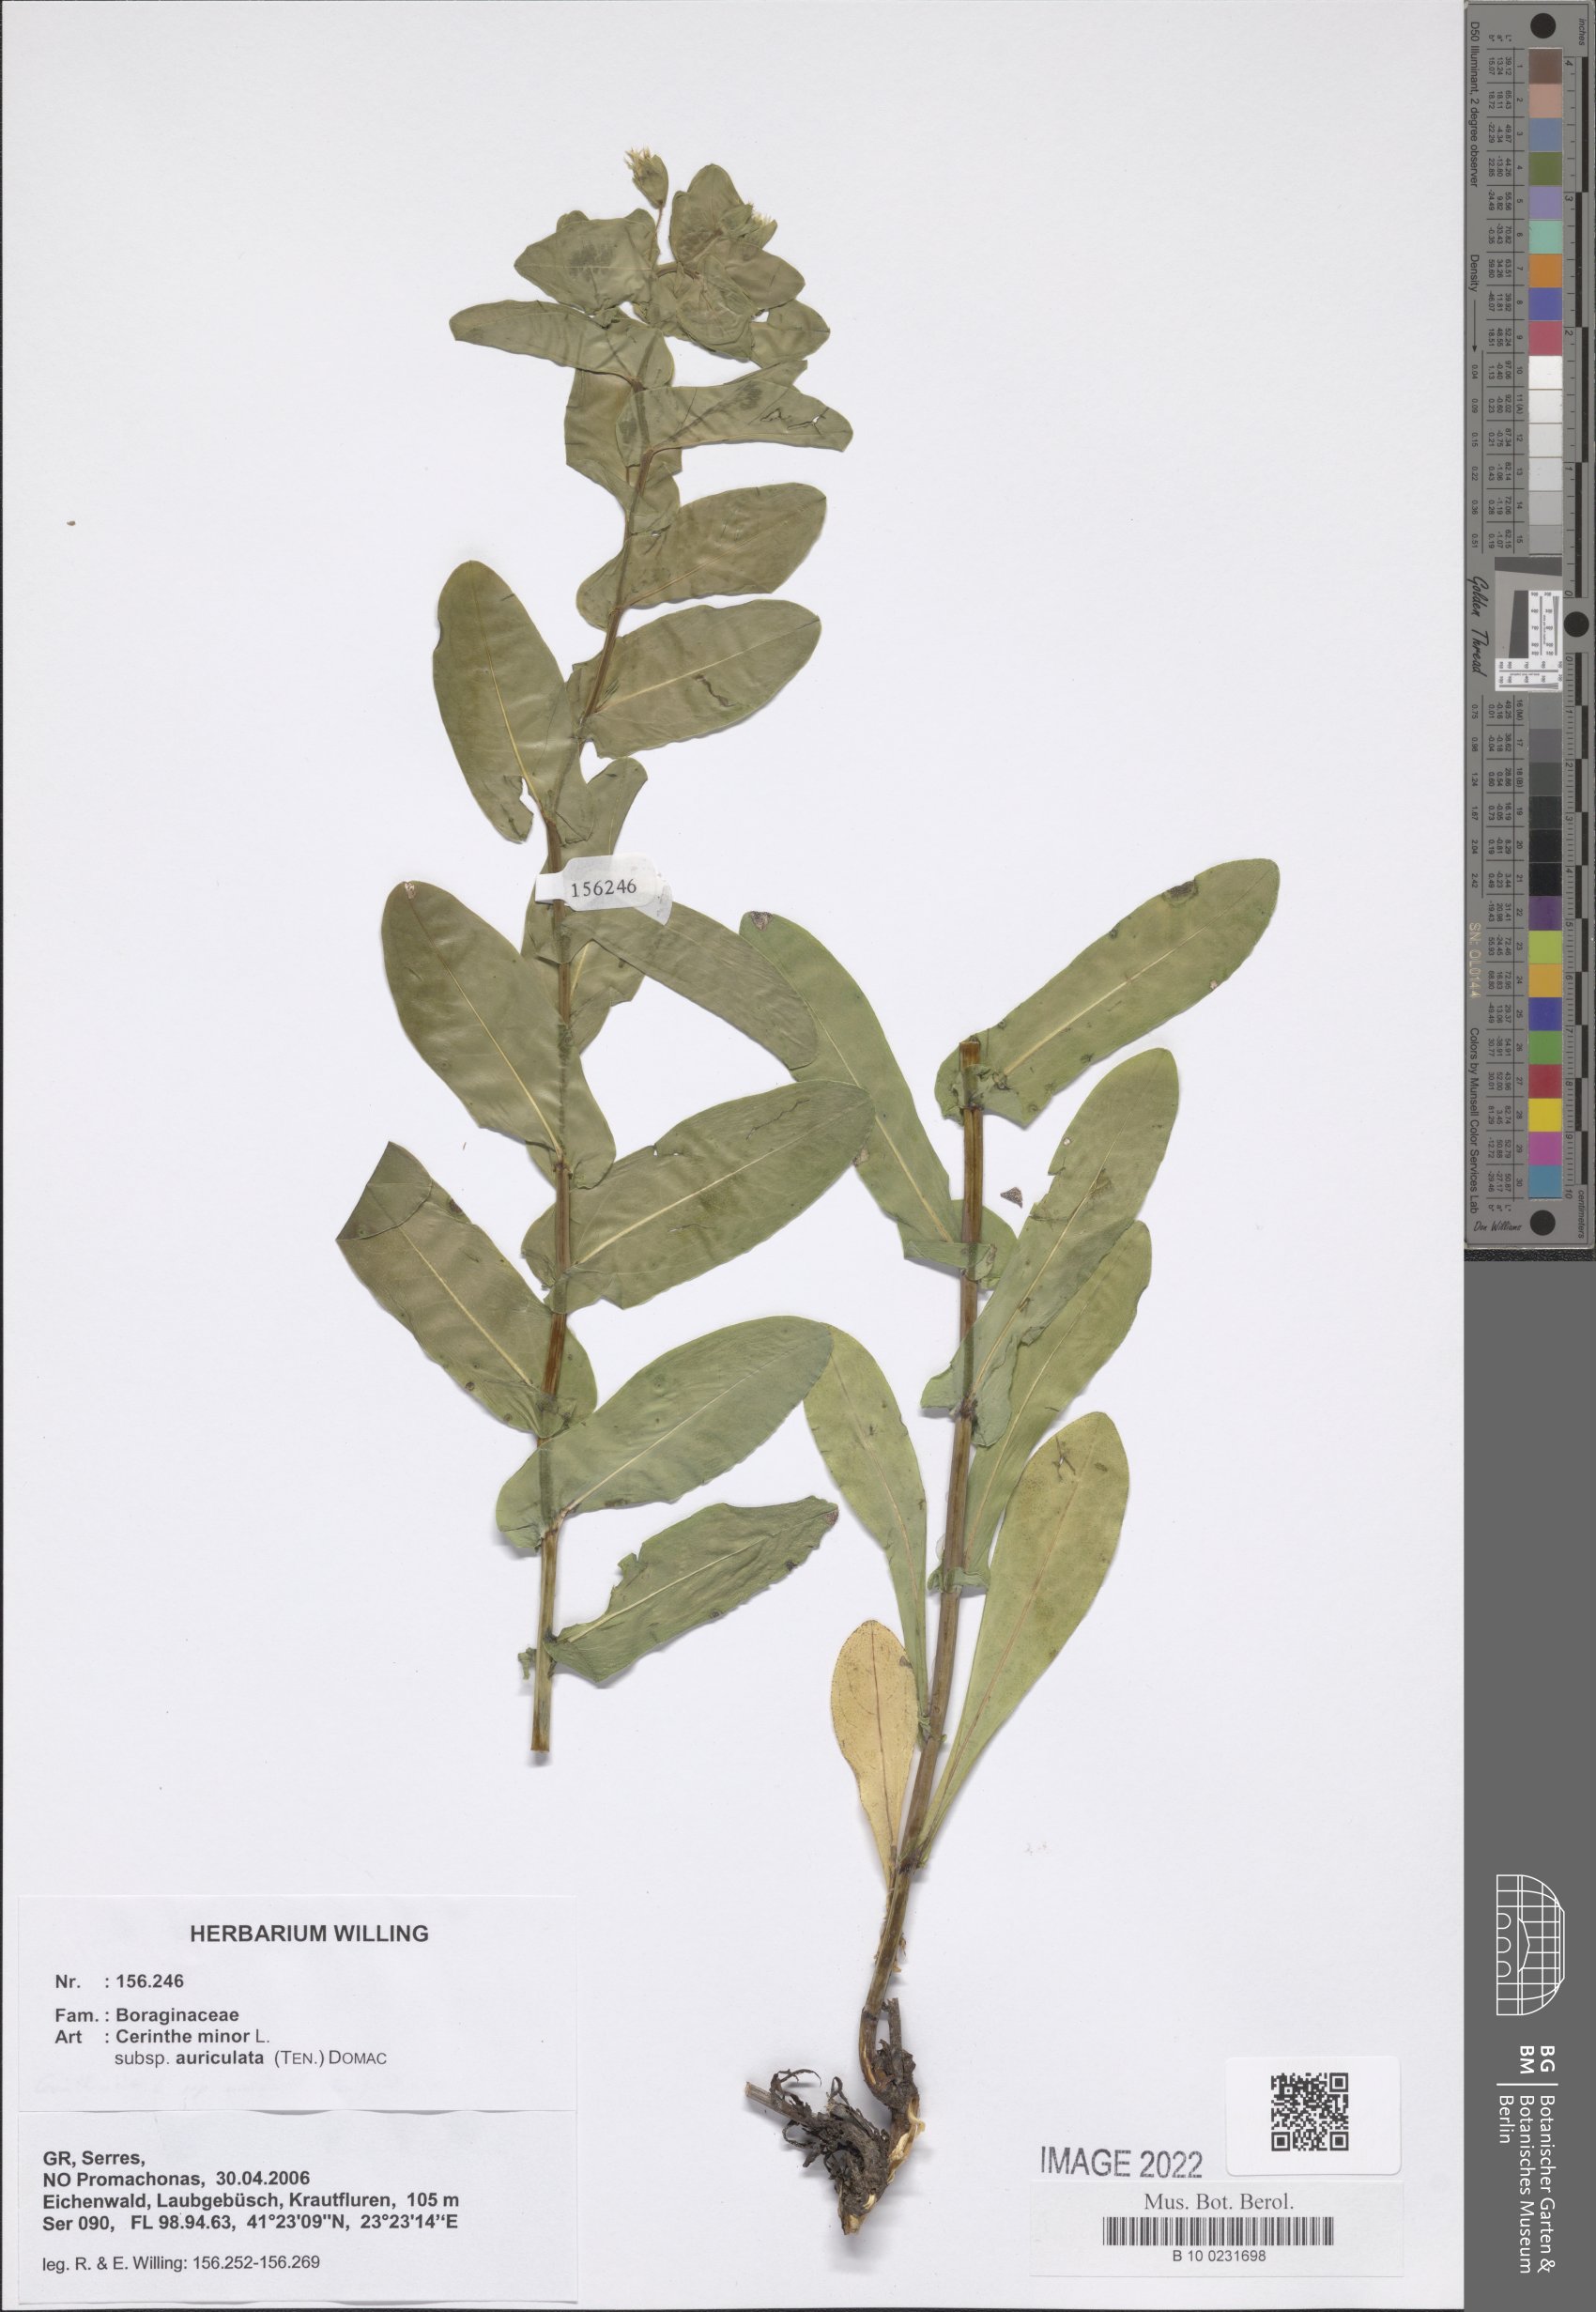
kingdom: Plantae
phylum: Tracheophyta
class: Magnoliopsida
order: Boraginales
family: Boraginaceae
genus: Cerinthe
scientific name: Cerinthe minor
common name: Lesser honeywort
